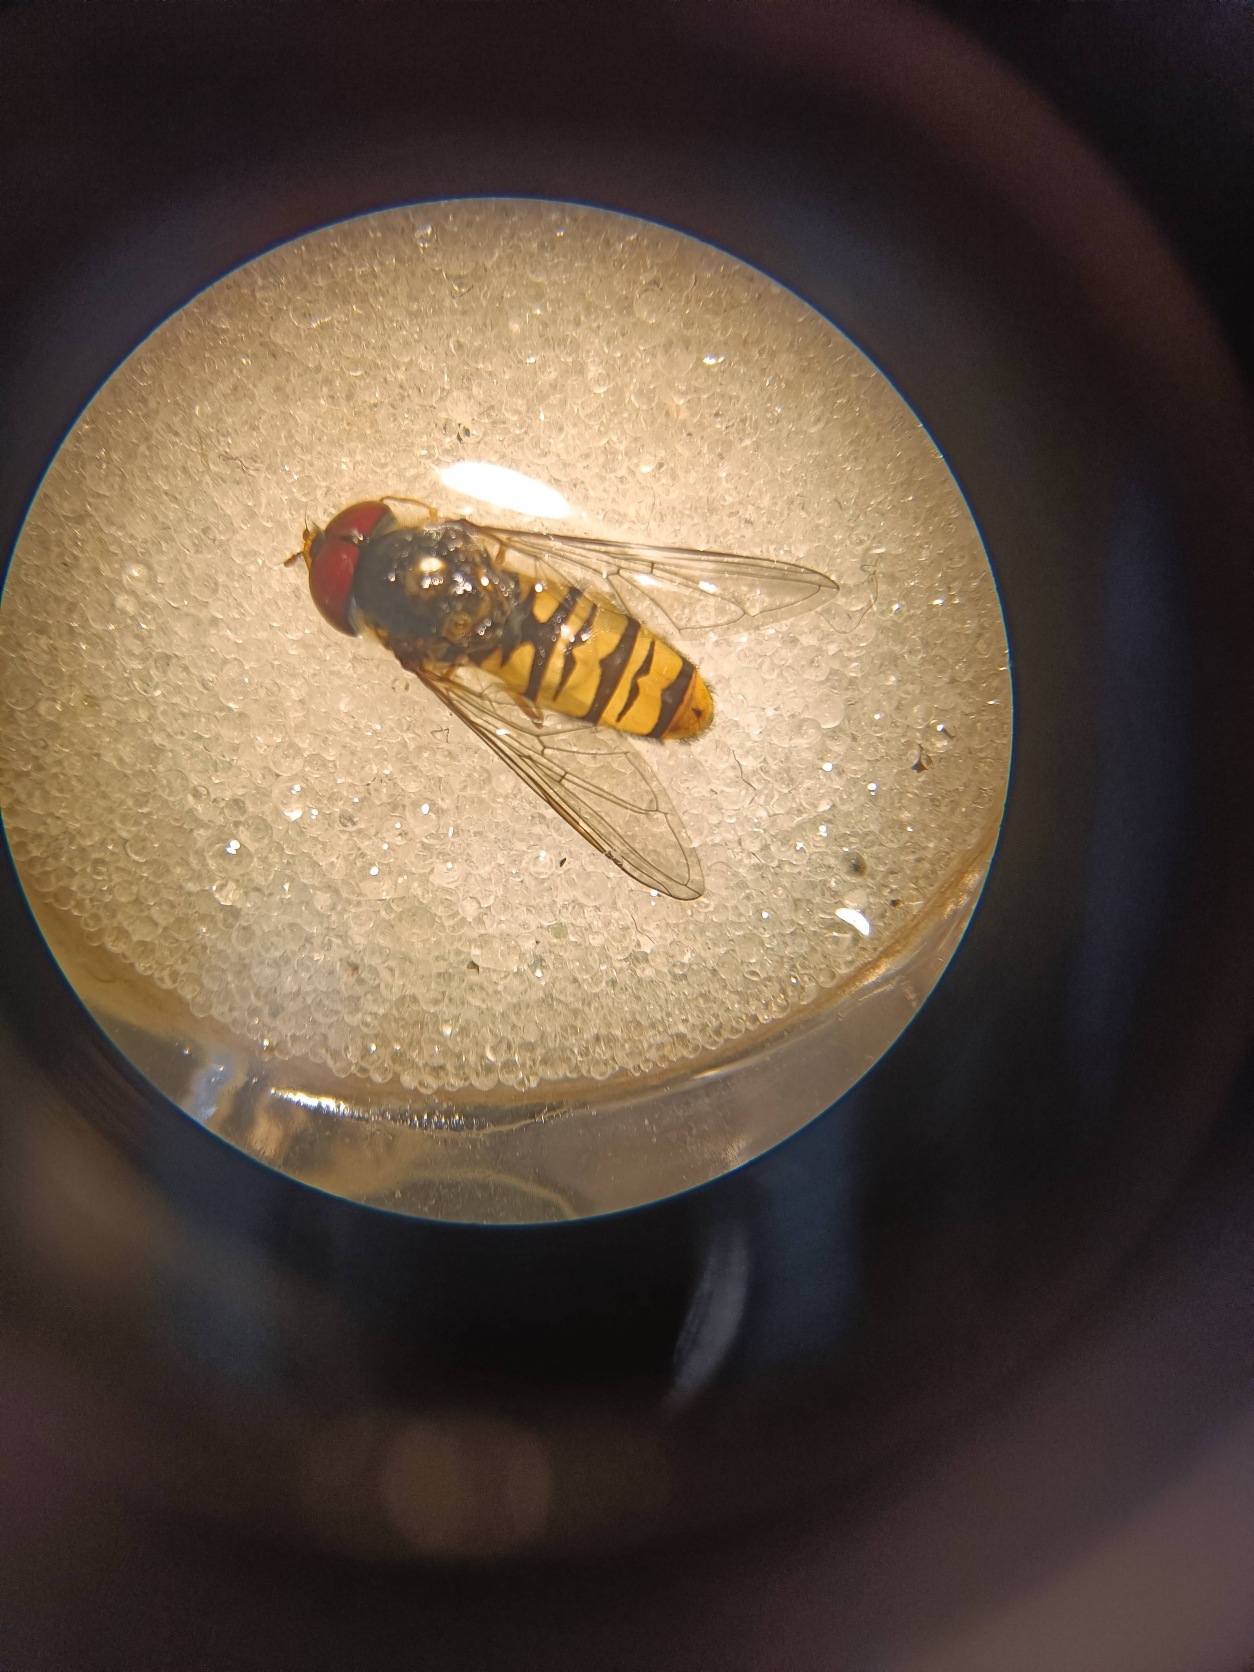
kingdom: Animalia
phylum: Arthropoda
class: Insecta
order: Diptera
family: Syrphidae
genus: Episyrphus
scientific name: Episyrphus balteatus
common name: Dobbeltbåndet svirreflue
